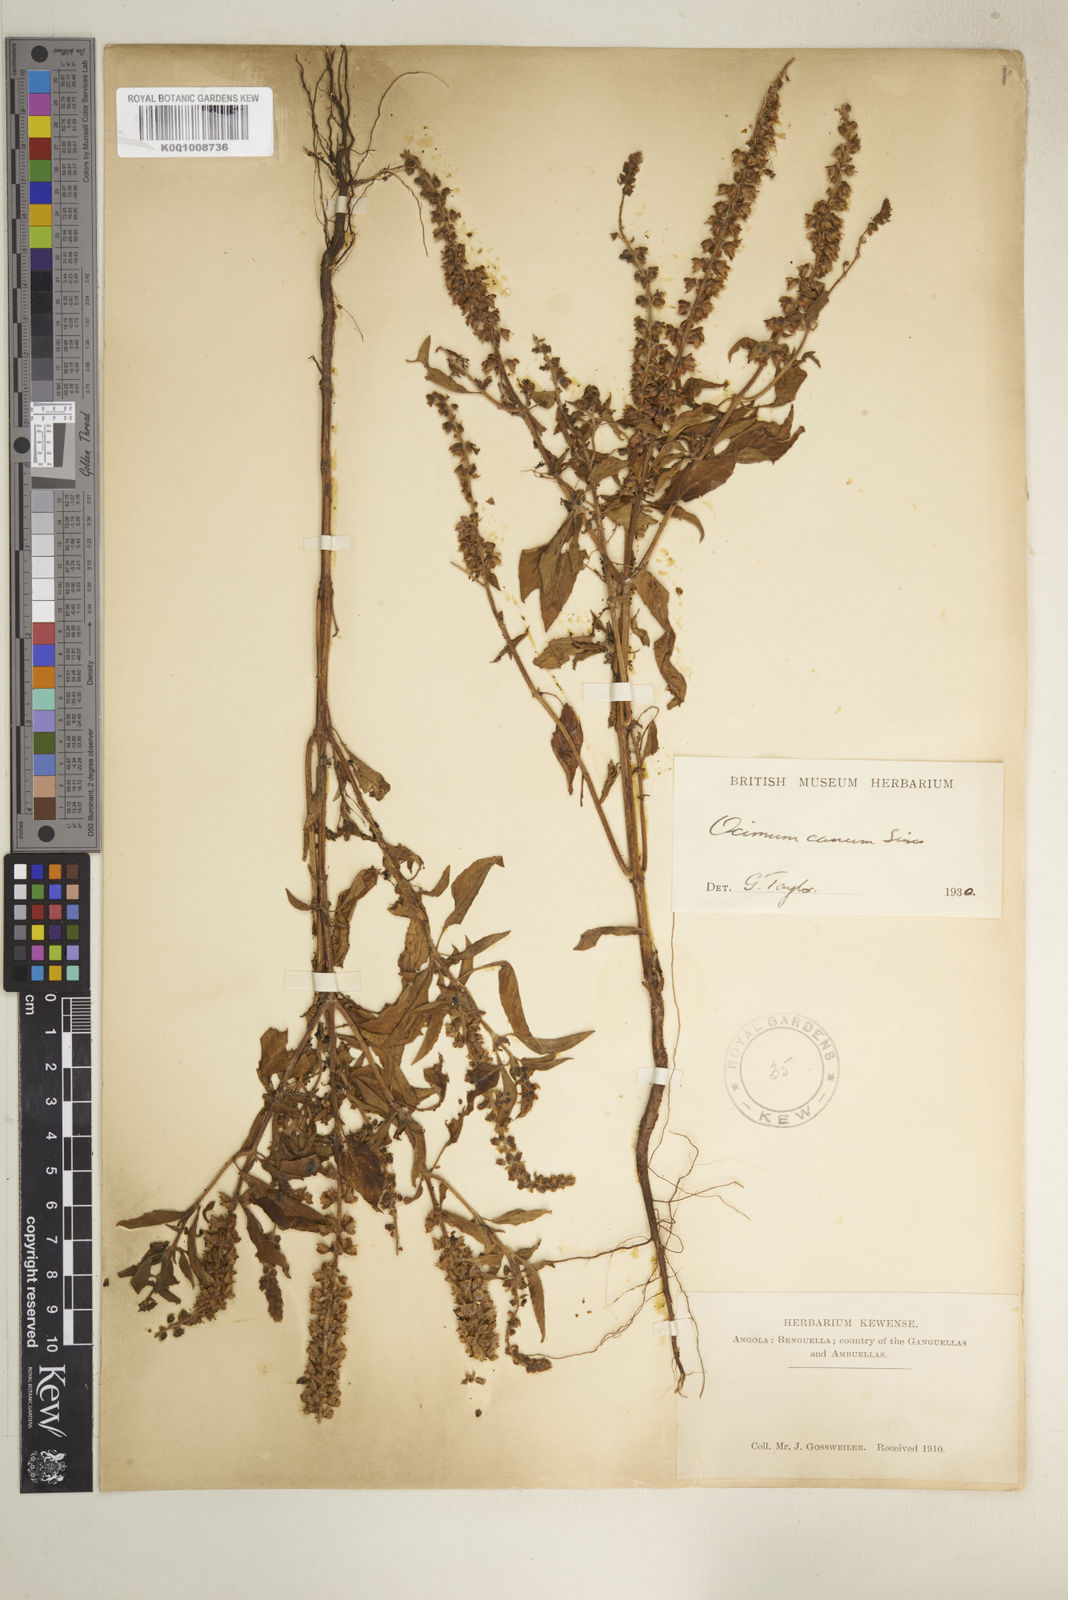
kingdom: Plantae
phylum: Tracheophyta
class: Magnoliopsida
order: Lamiales
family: Lamiaceae
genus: Ocimum
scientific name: Ocimum africanum
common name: Hoary basil
